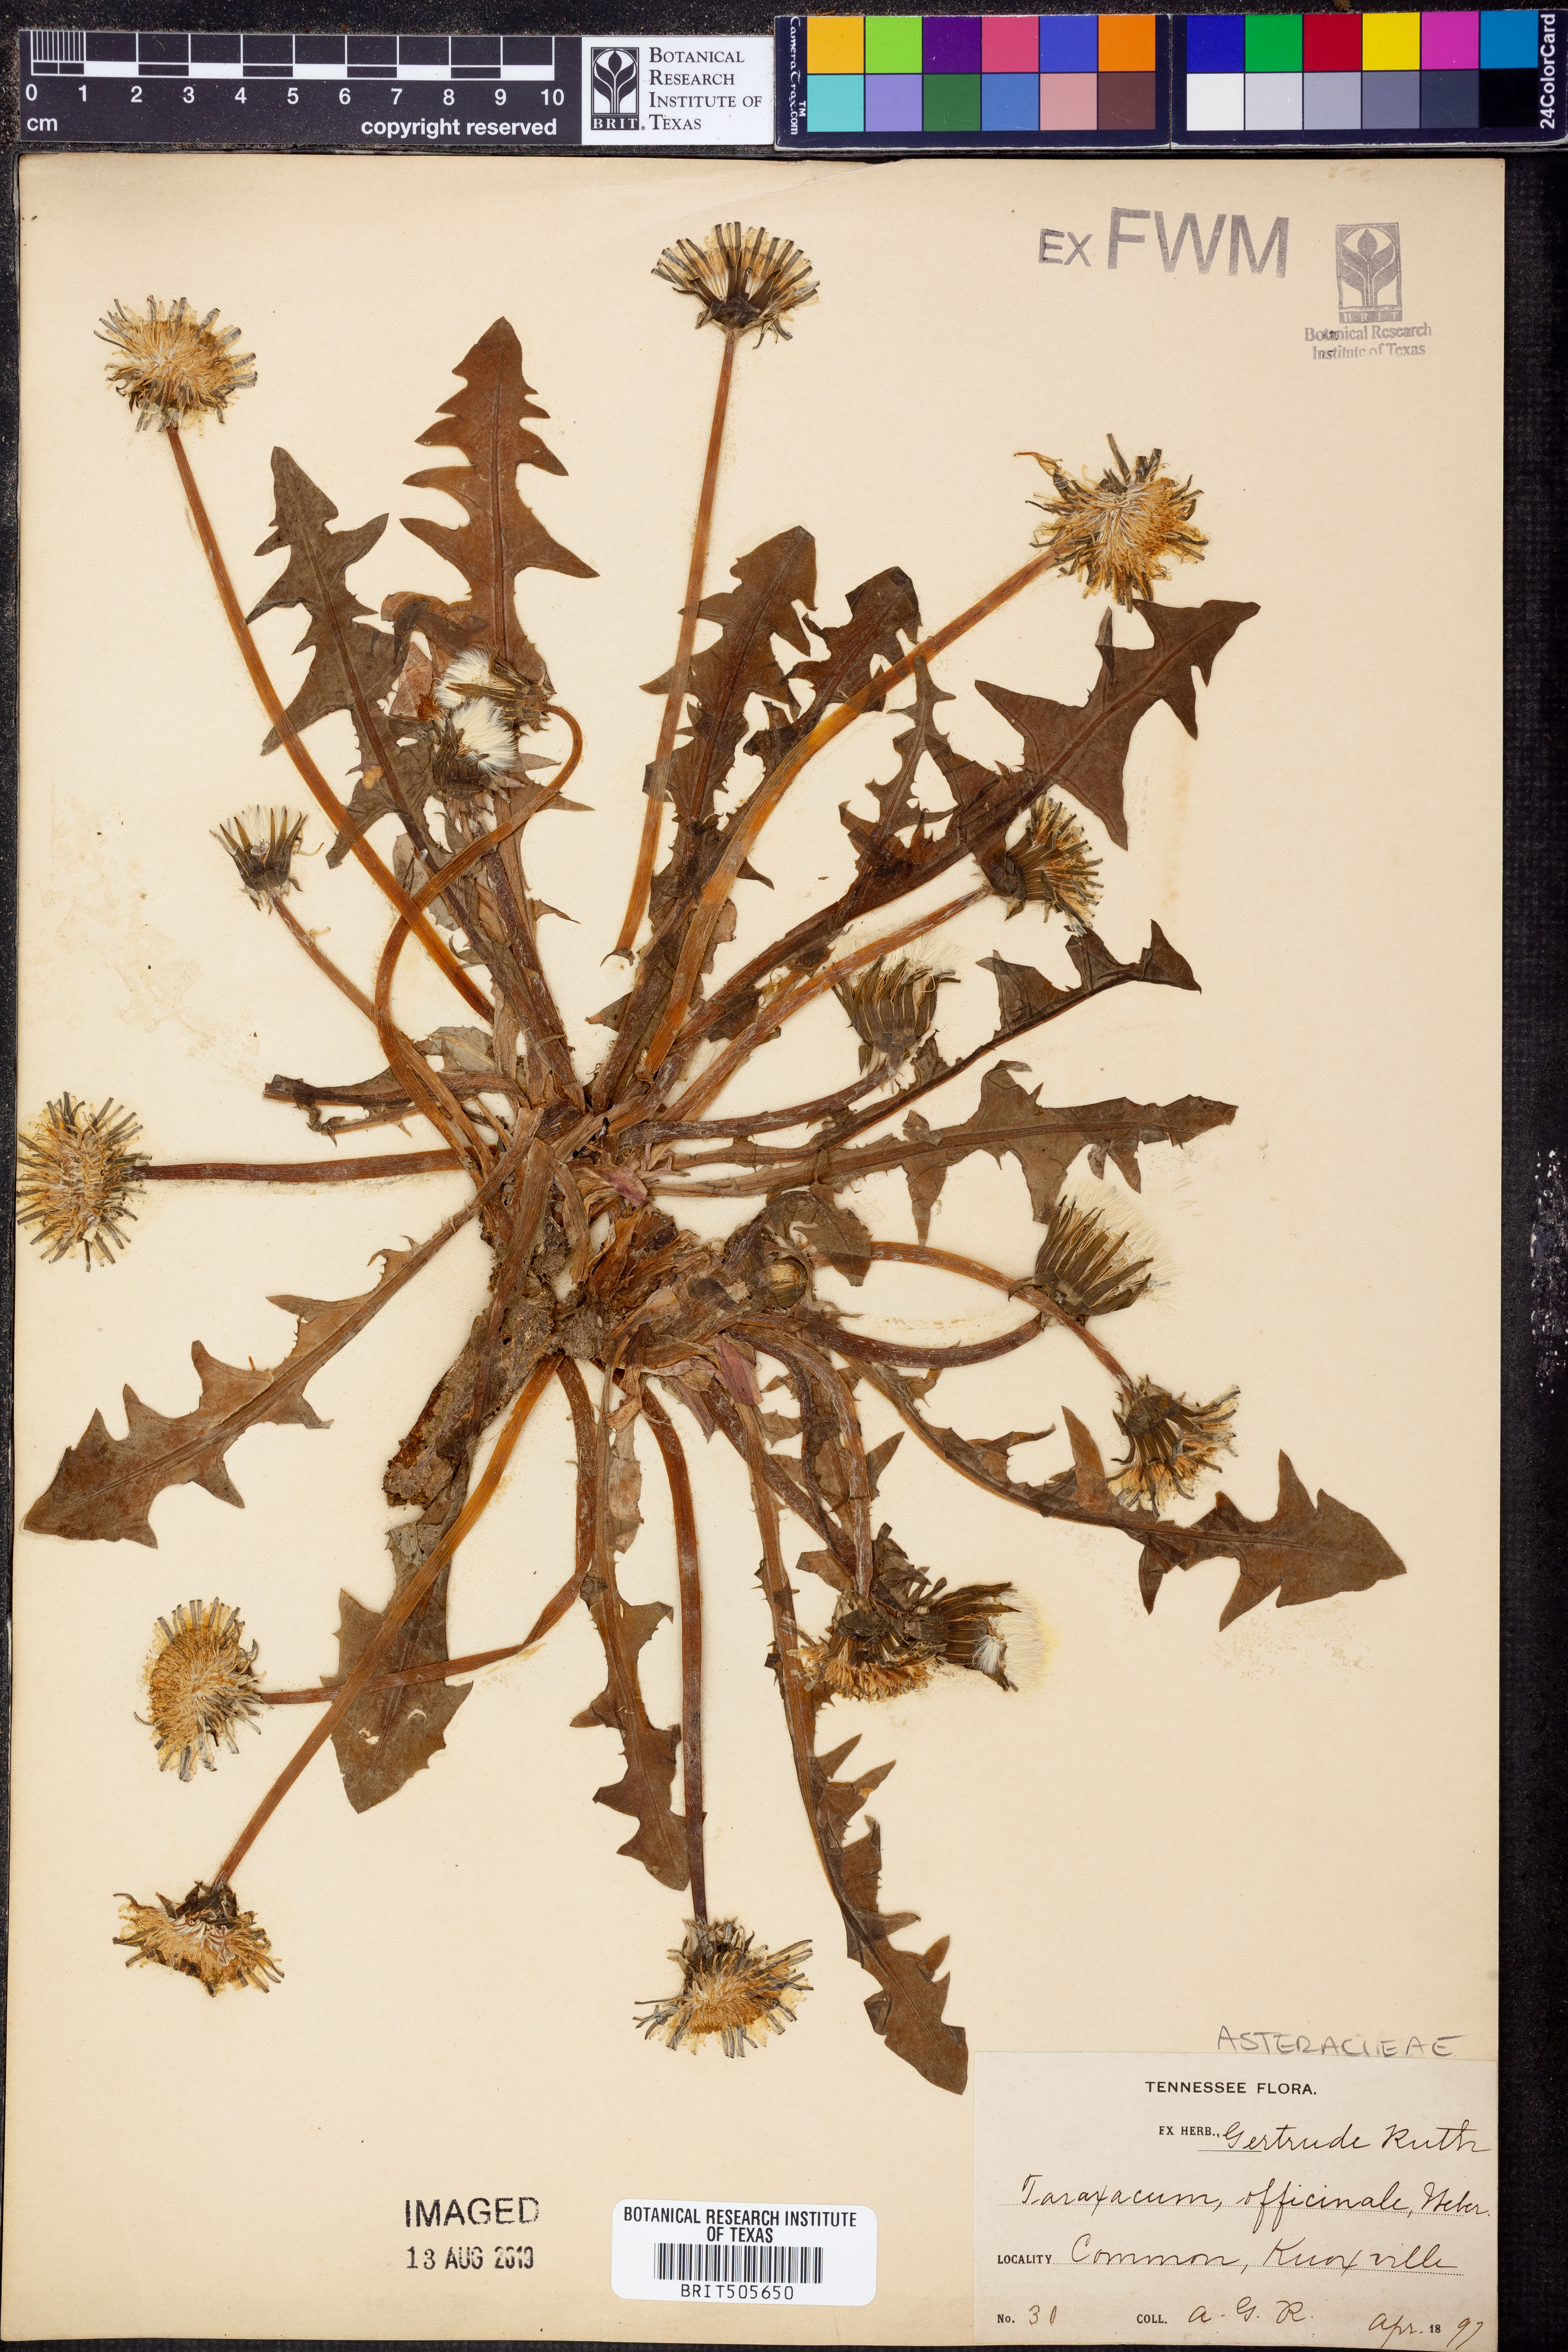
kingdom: Plantae
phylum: Tracheophyta
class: Magnoliopsida
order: Asterales
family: Asteraceae
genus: Taraxacum
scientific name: Taraxacum officinale
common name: Common dandelion
